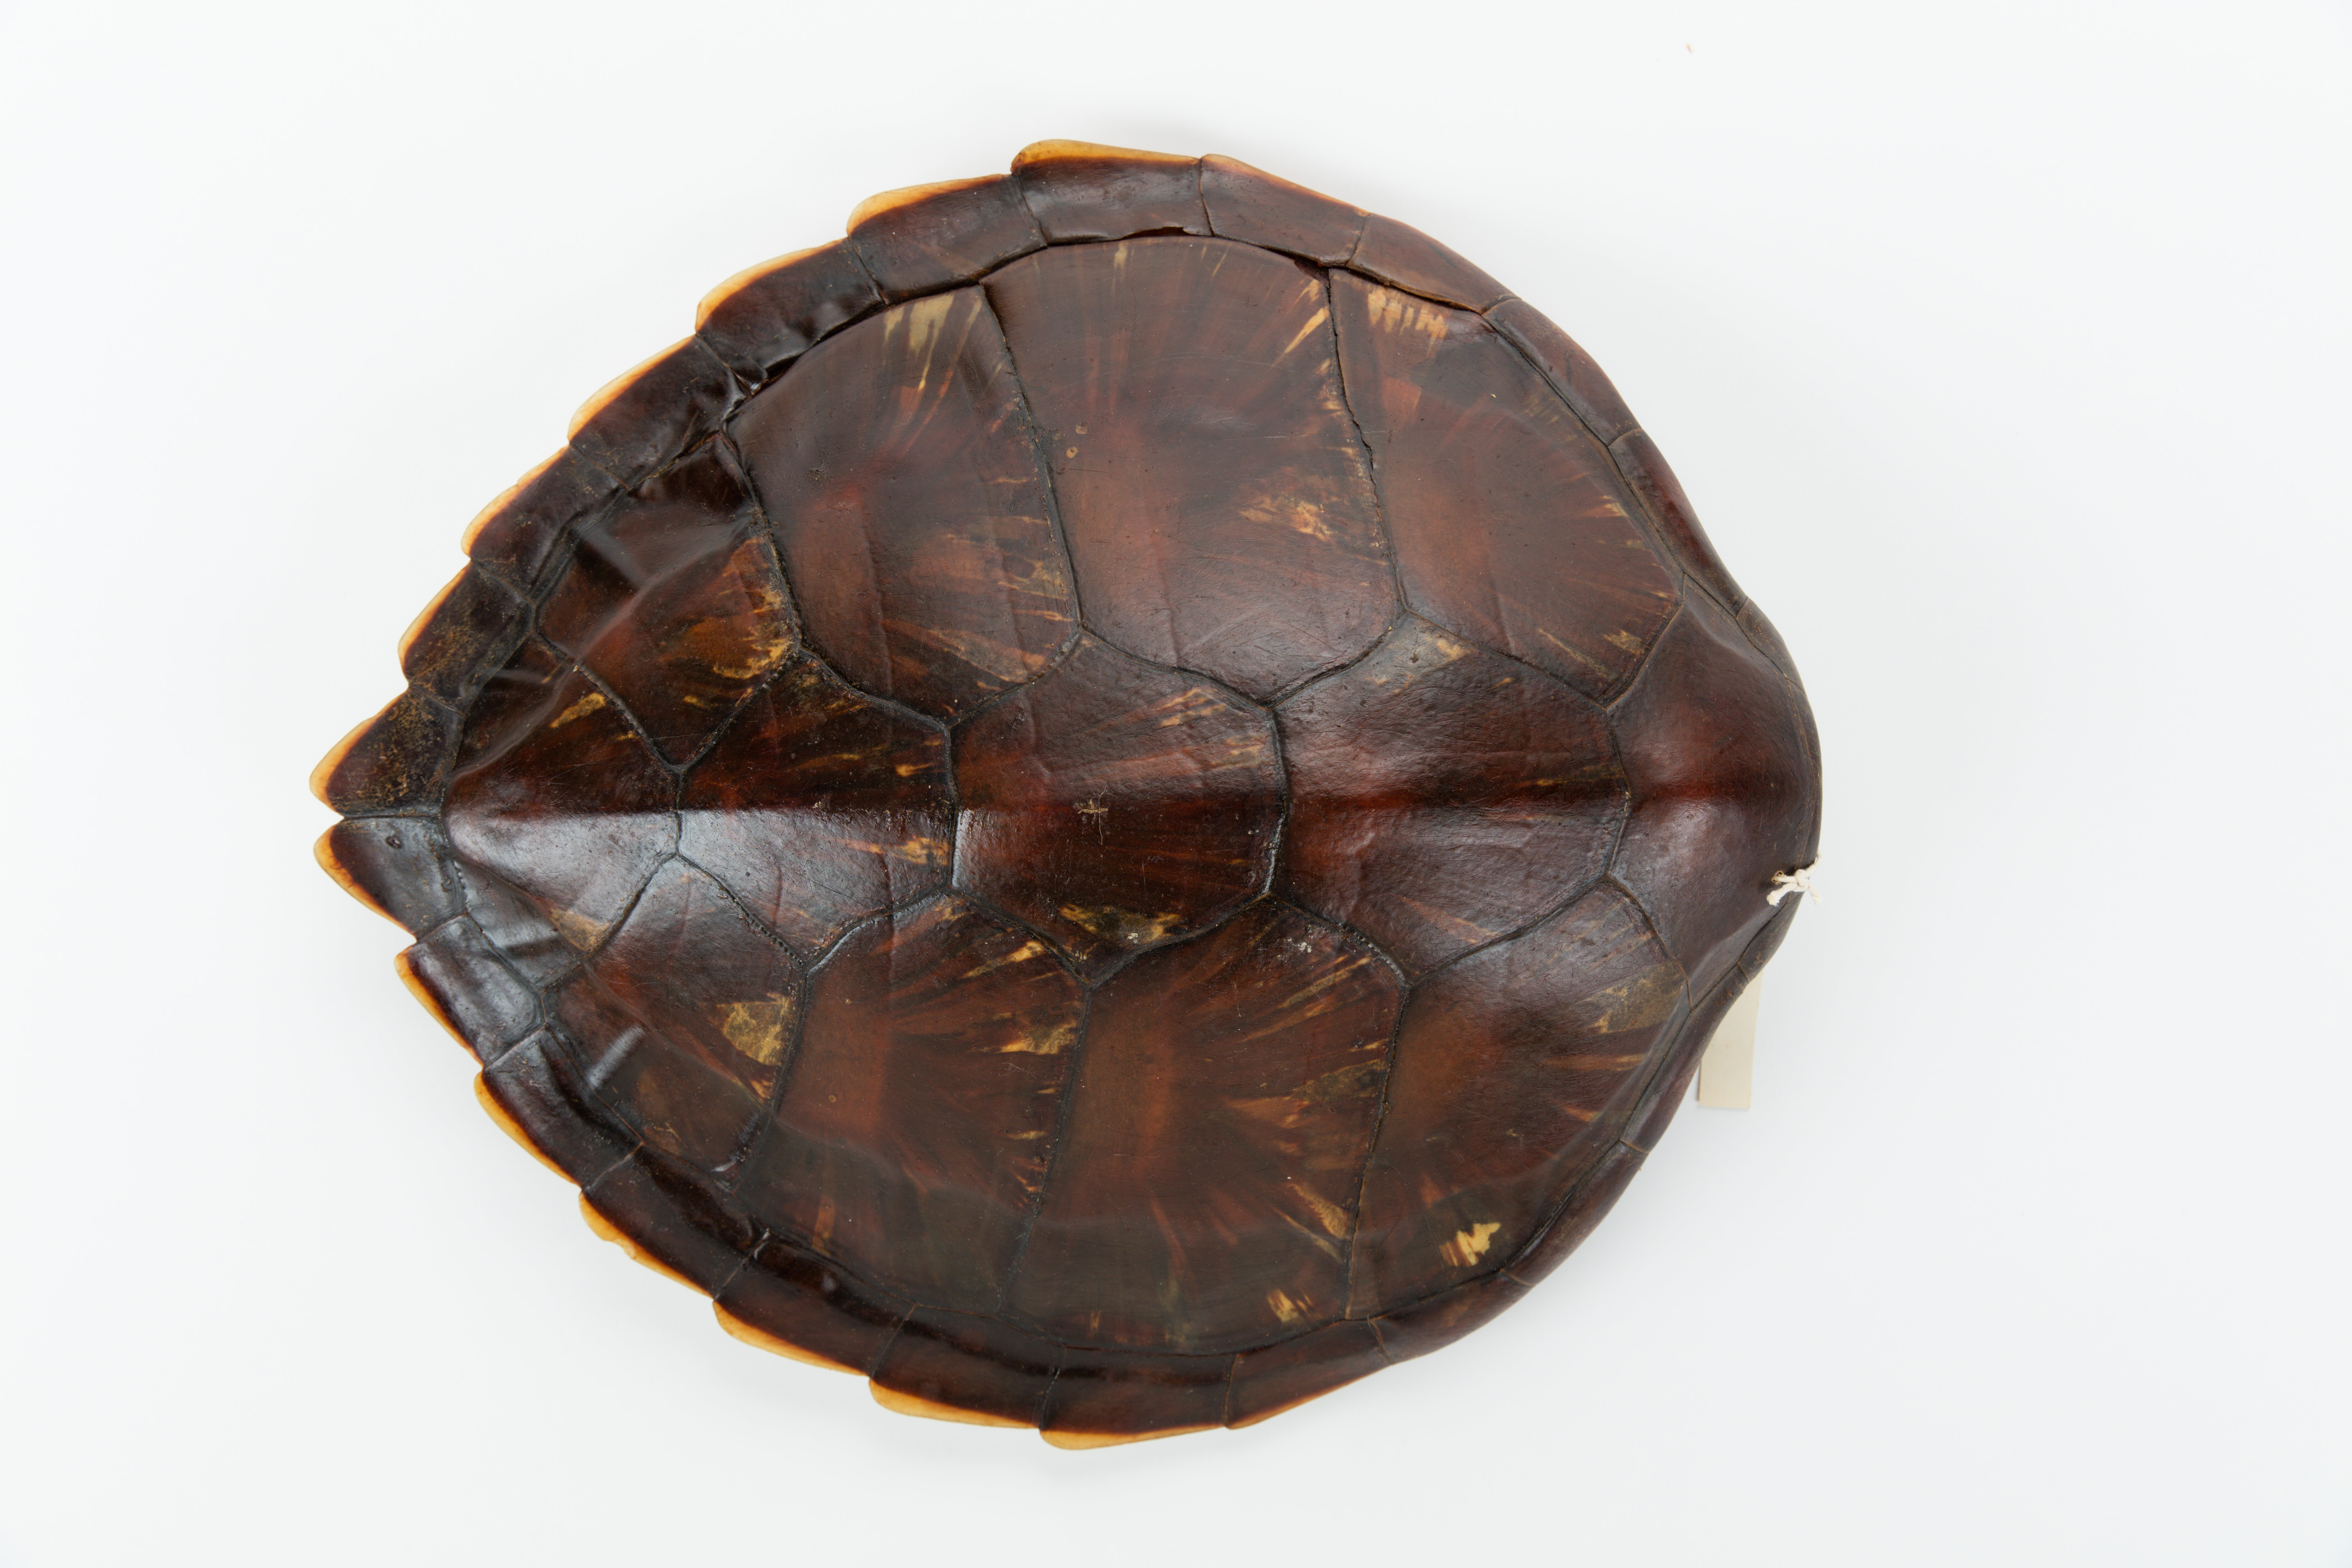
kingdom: Animalia
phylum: Chordata
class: Testudines
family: Cheloniidae
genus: Chelonia
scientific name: Chelonia mydas
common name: Green turtle
